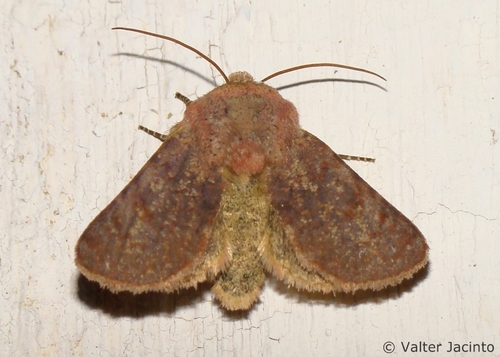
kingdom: Animalia
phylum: Arthropoda
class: Insecta
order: Lepidoptera
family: Noctuidae
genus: Metopoceras
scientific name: Metopoceras felicina
